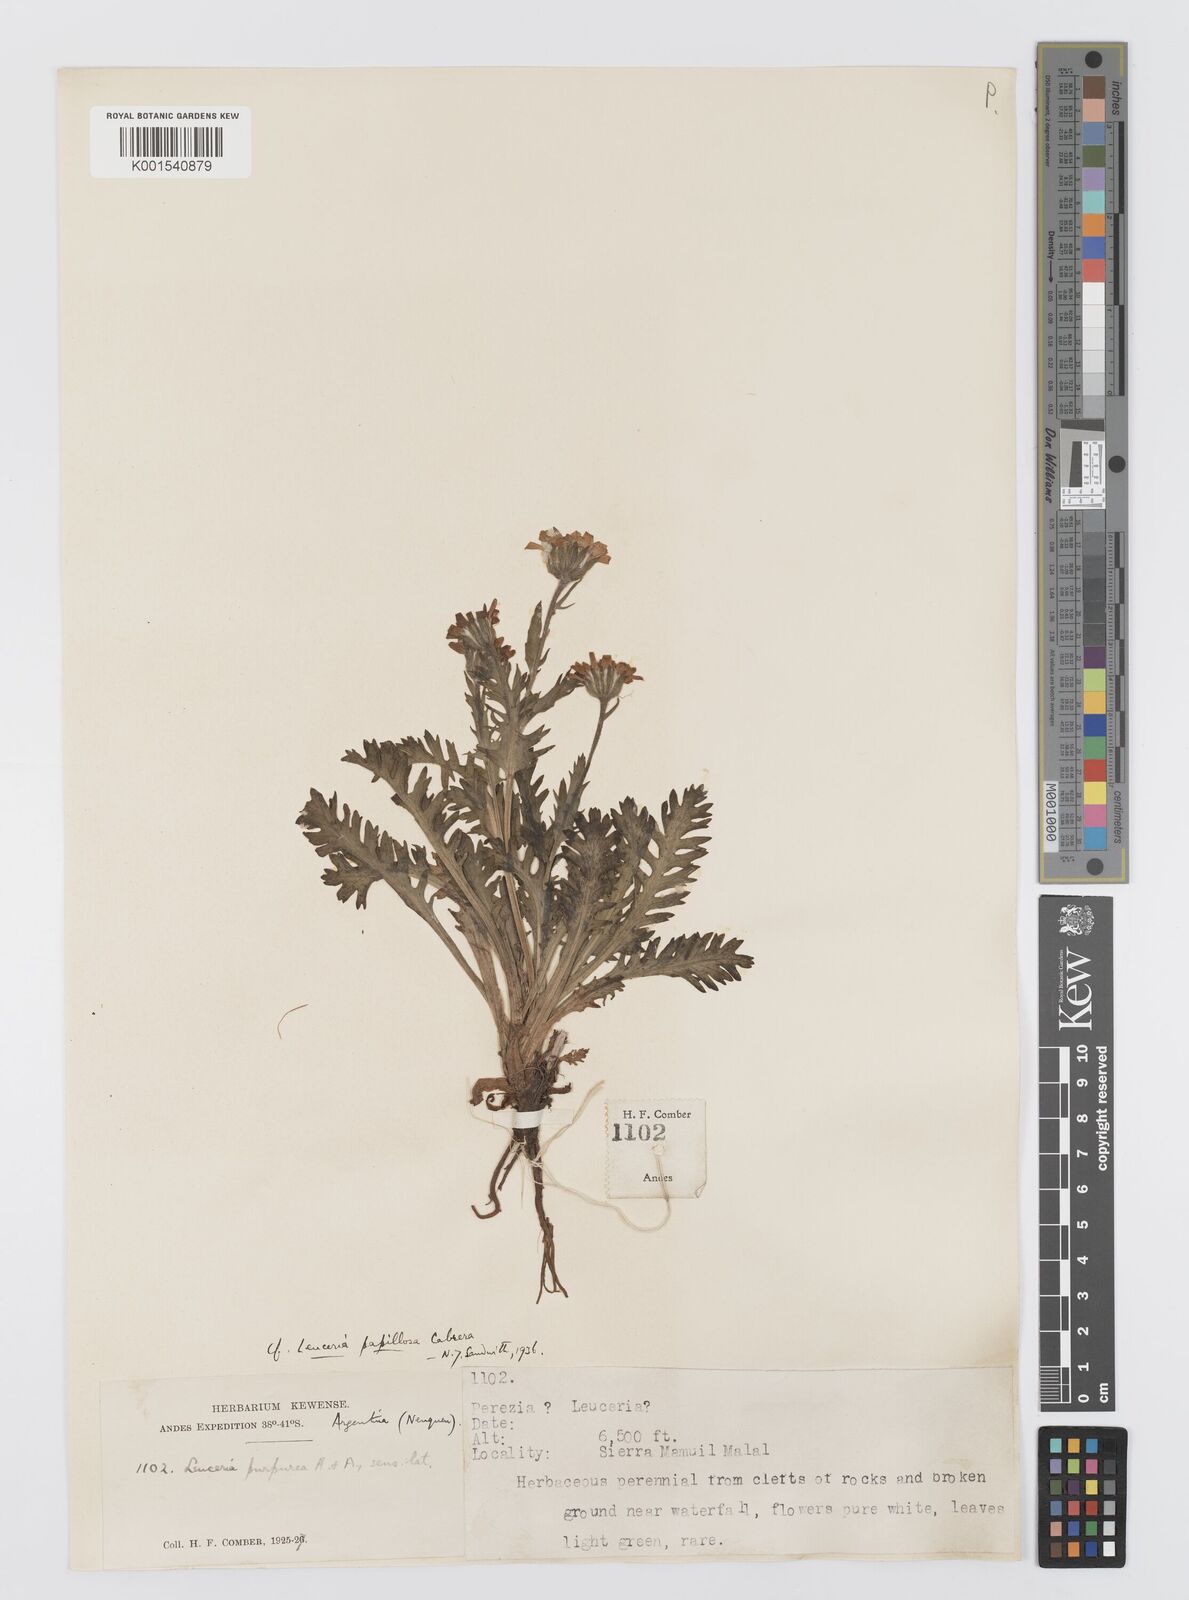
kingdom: Plantae
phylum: Tracheophyta
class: Magnoliopsida
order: Asterales
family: Asteraceae
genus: Leucheria
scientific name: Leucheria papillosa
